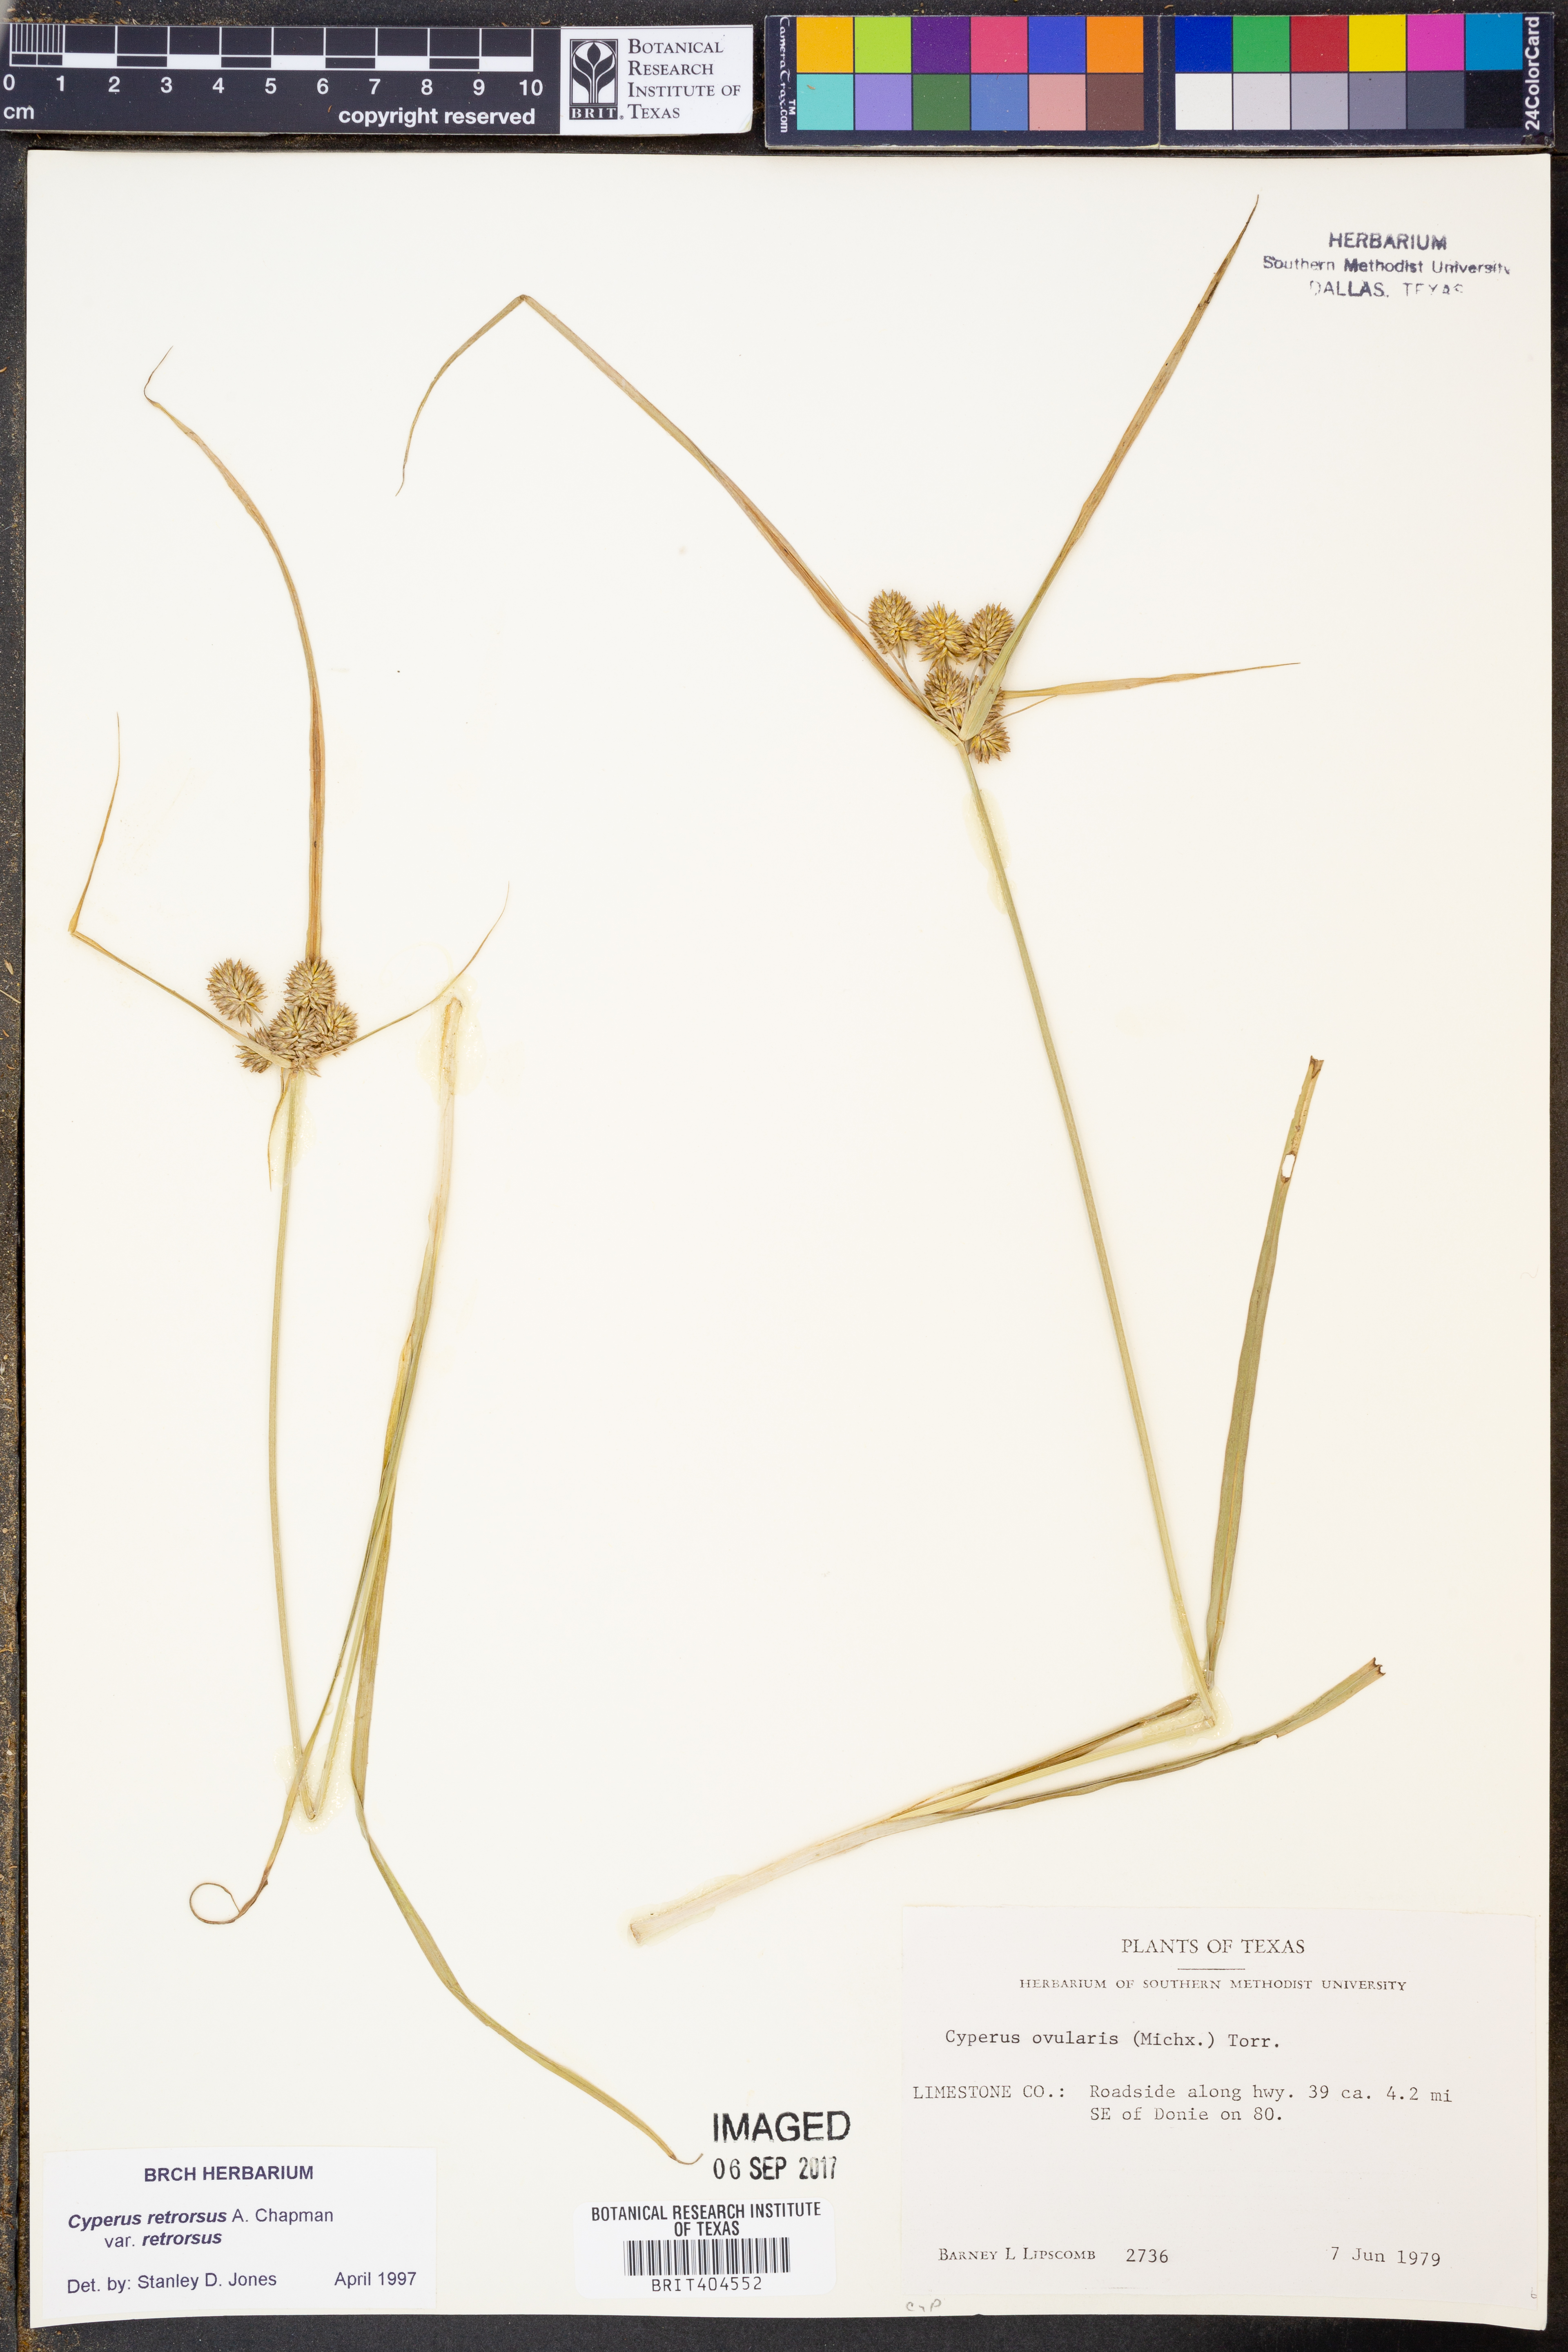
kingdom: Plantae
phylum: Tracheophyta
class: Liliopsida
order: Poales
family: Cyperaceae
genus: Cyperus
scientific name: Cyperus retrorsus
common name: Pinebarren flat sedge
